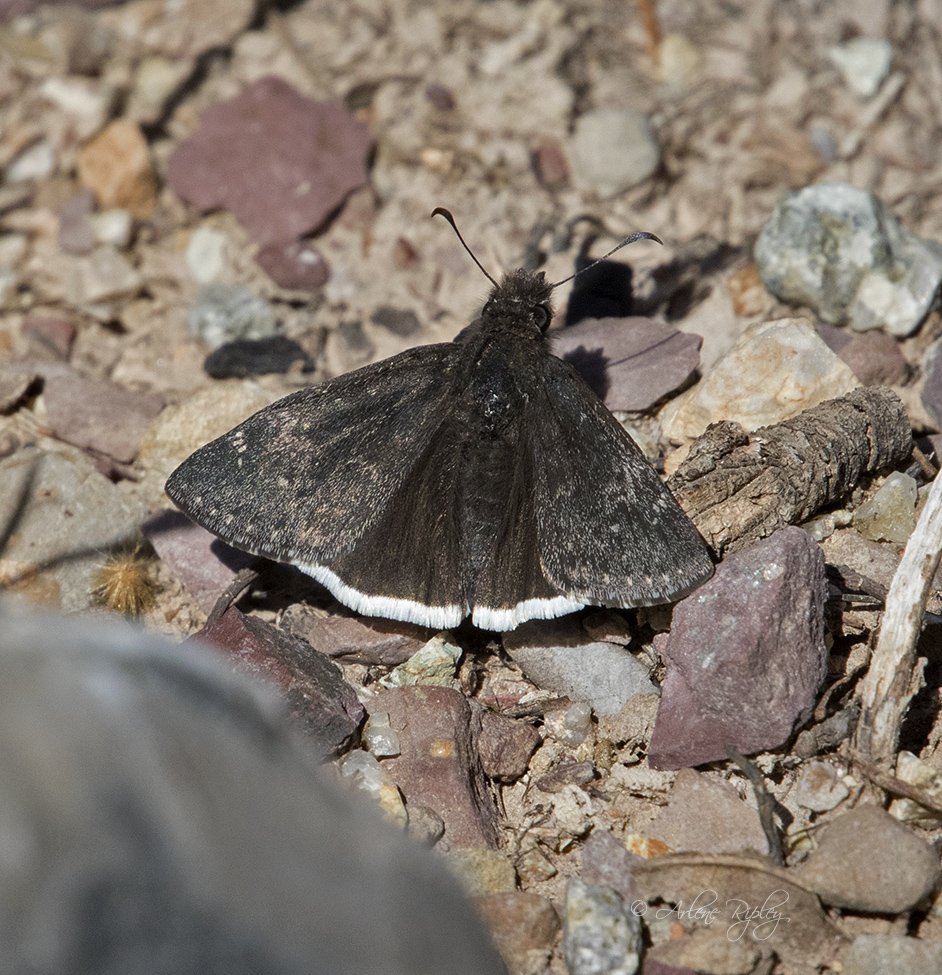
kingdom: Animalia
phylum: Arthropoda
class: Insecta
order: Lepidoptera
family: Hesperiidae
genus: Erynnis
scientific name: Erynnis funeralis
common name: Funereal Duskywing
